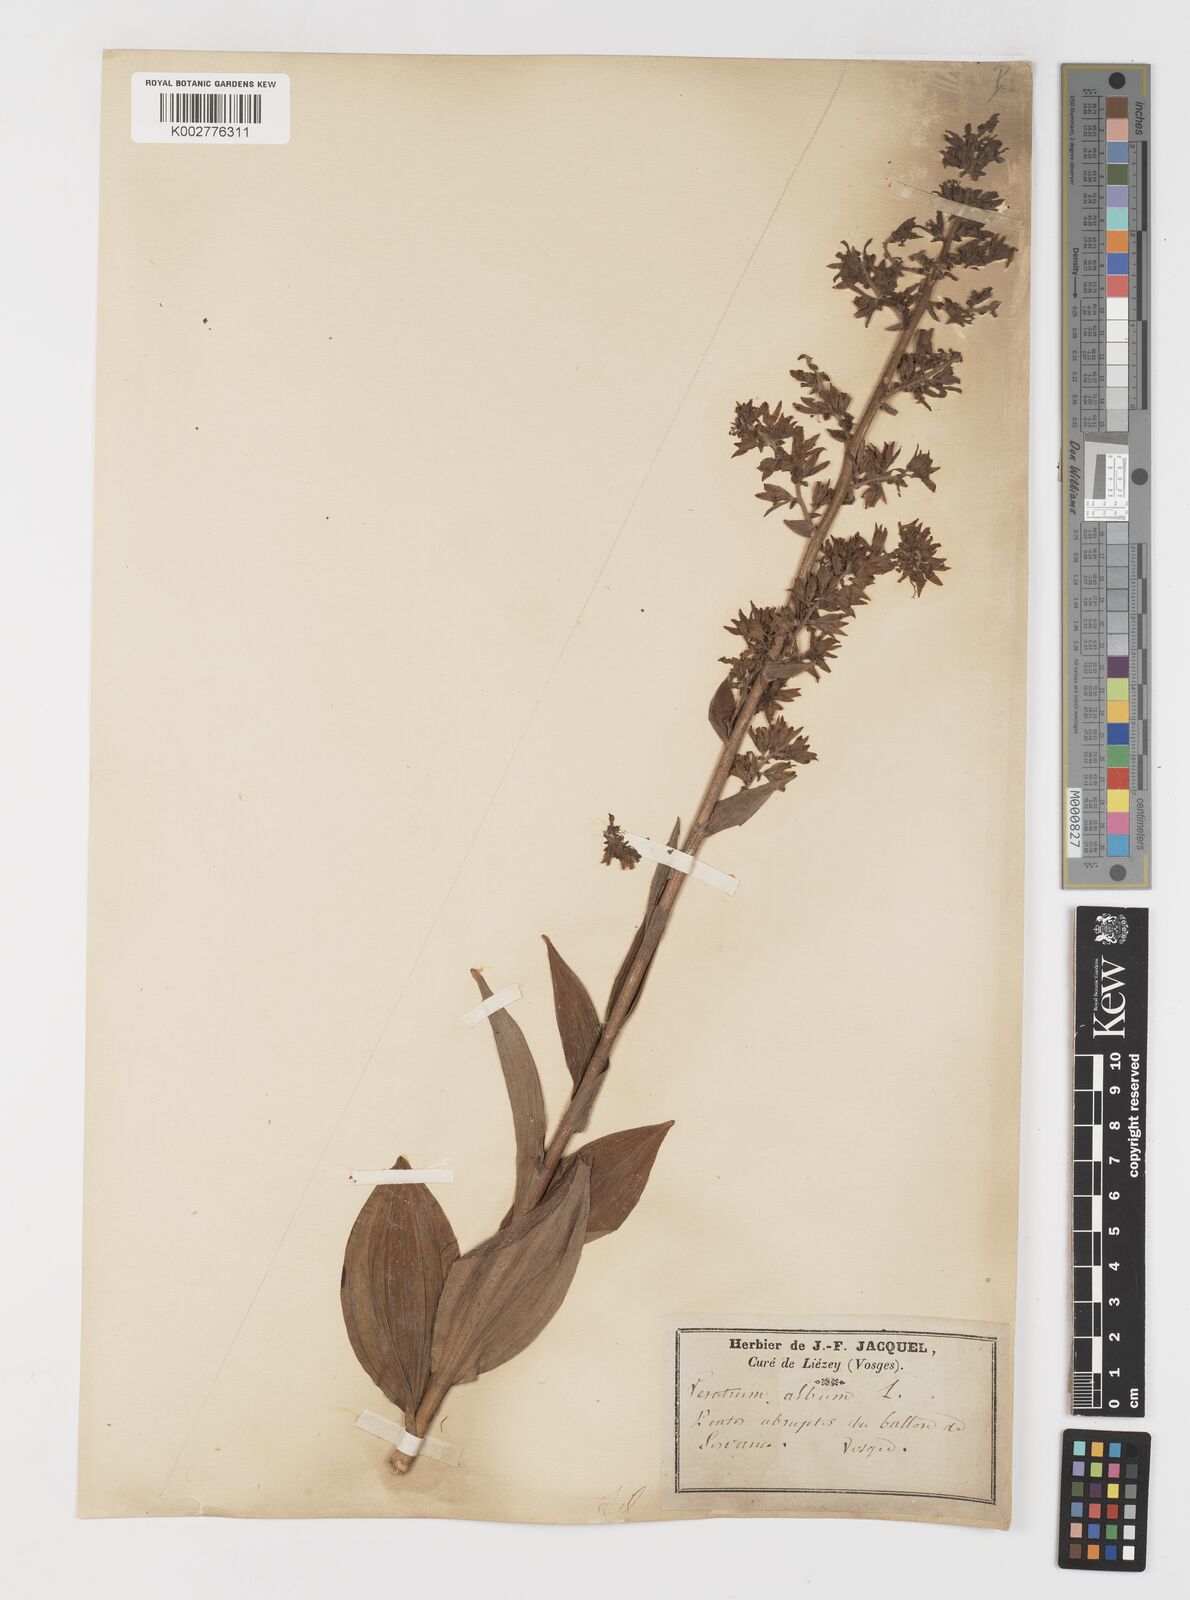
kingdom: Plantae
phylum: Tracheophyta
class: Liliopsida
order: Liliales
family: Melanthiaceae
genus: Veratrum
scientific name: Veratrum album
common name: White veratrum
